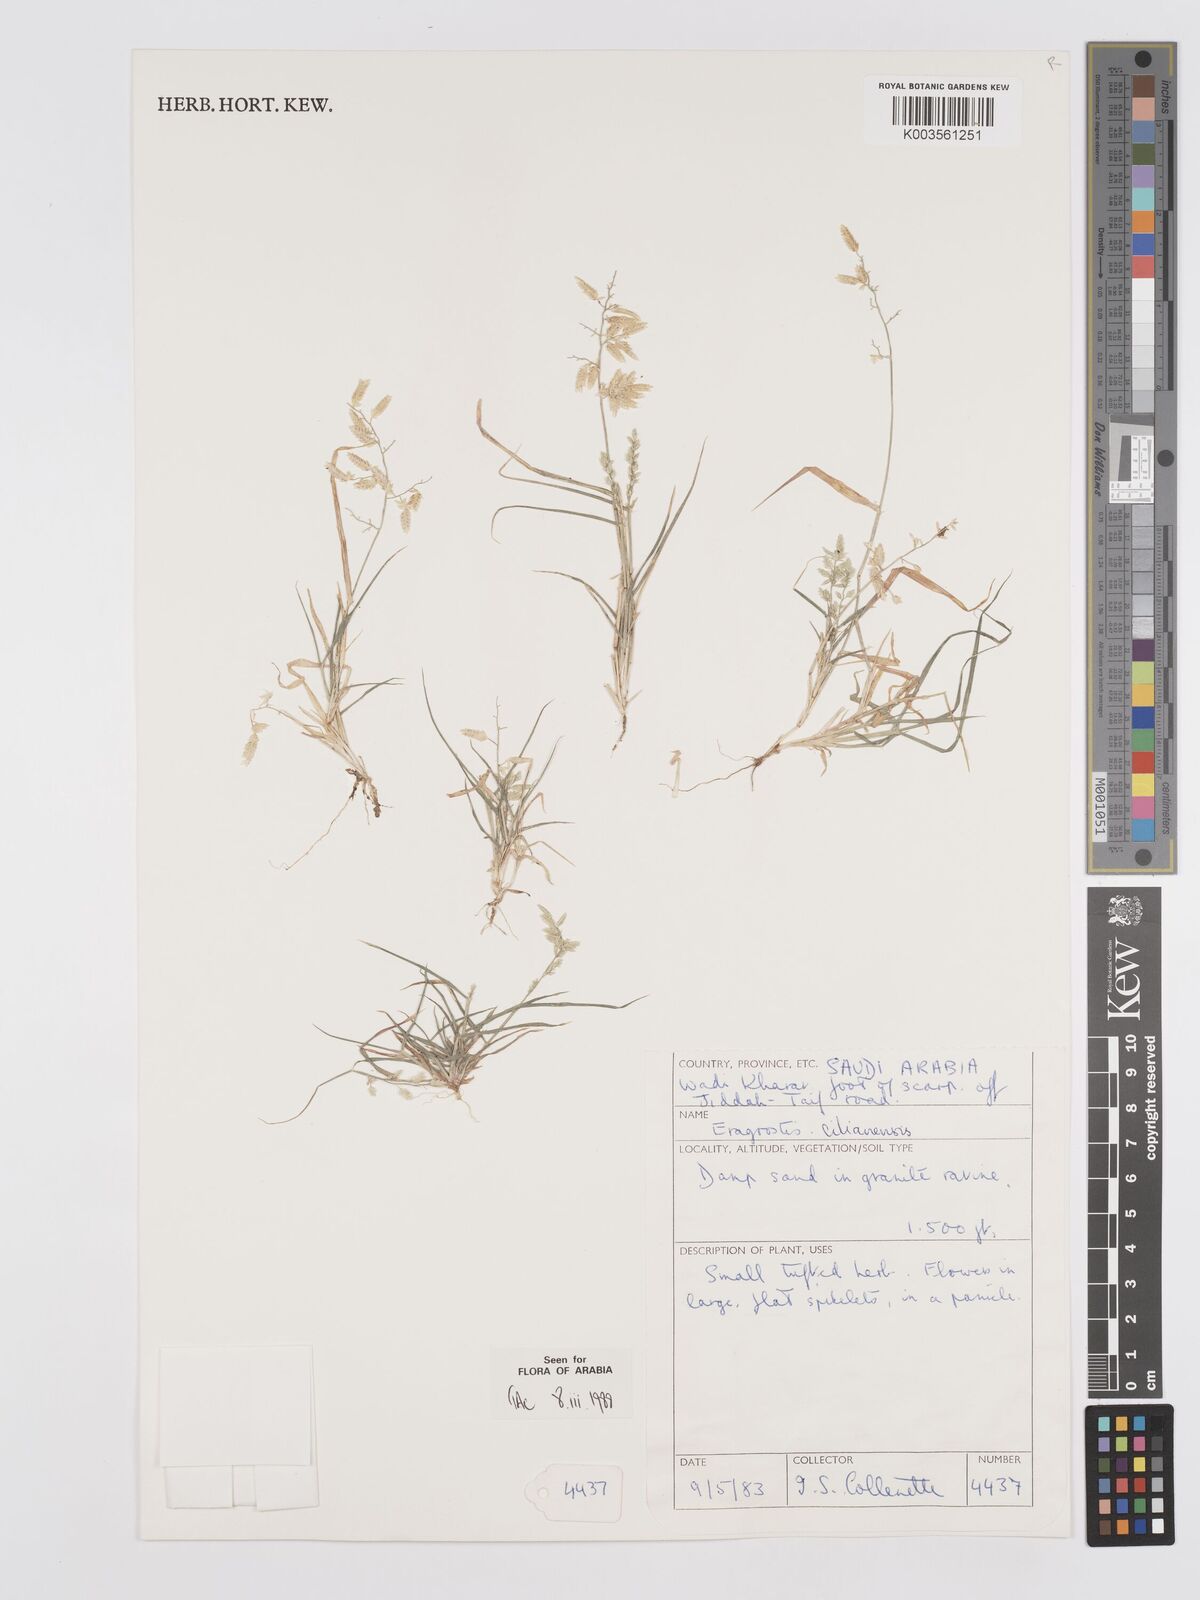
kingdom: Plantae
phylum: Tracheophyta
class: Liliopsida
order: Poales
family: Poaceae
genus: Eragrostis
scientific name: Eragrostis cilianensis
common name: Stinkgrass
